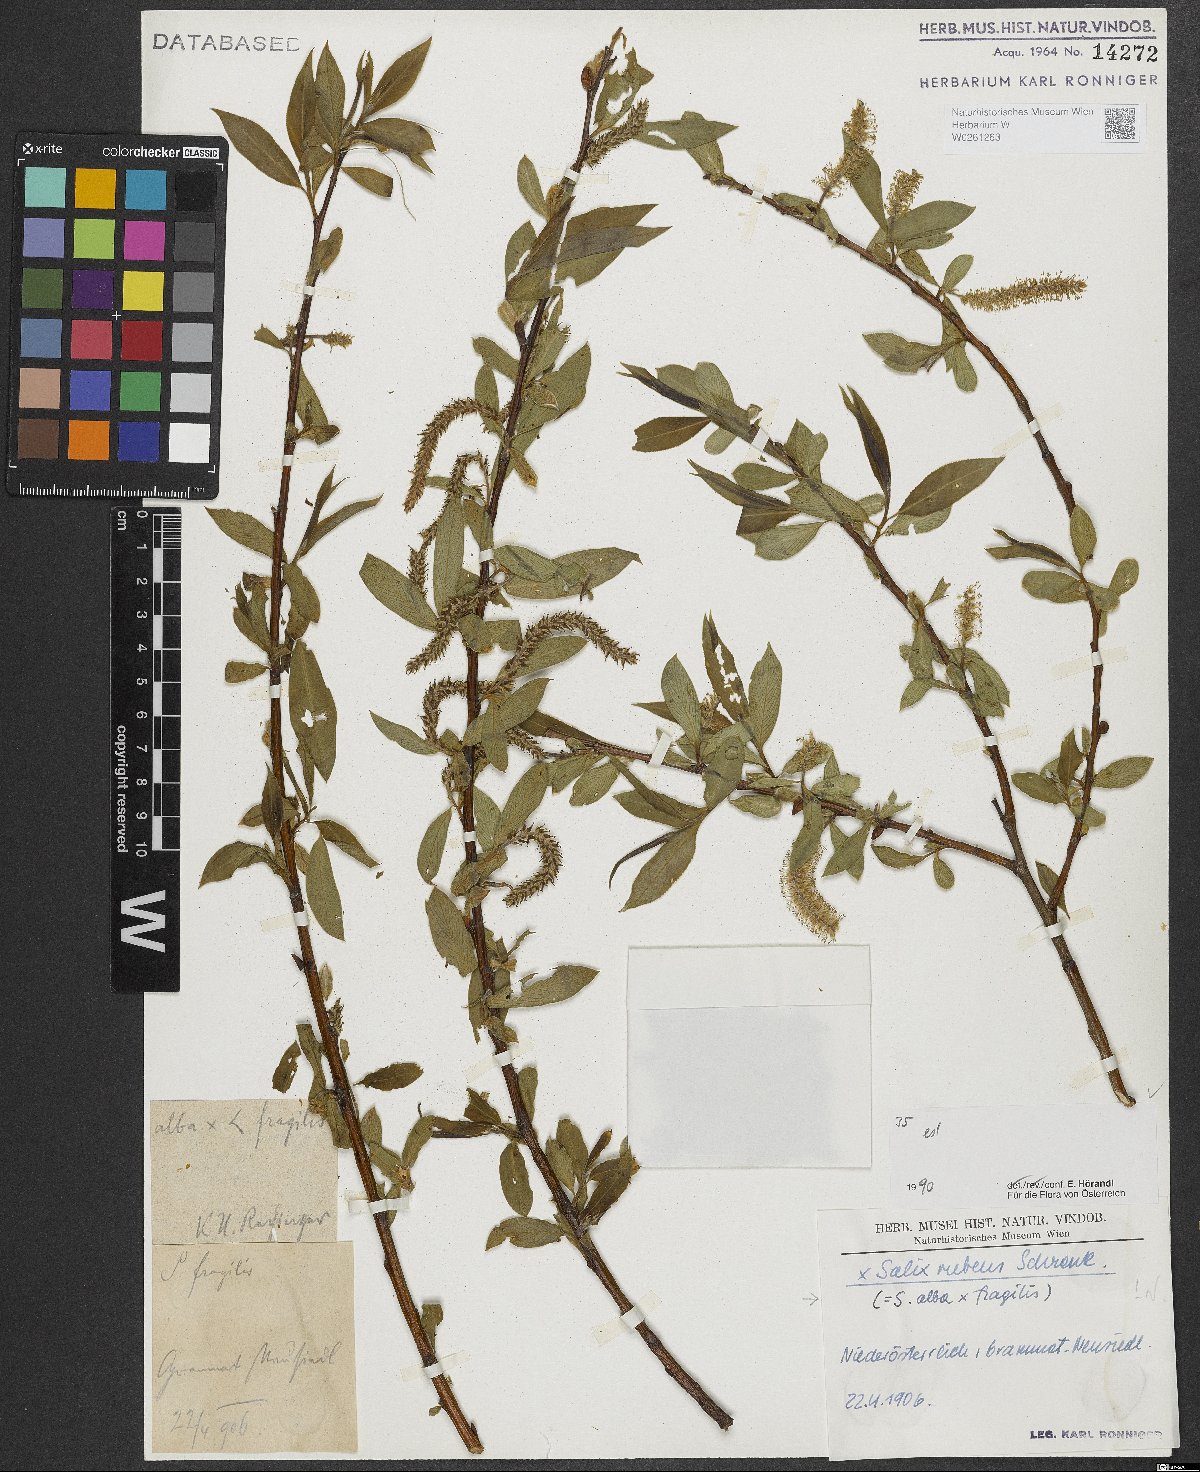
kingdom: Plantae
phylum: Tracheophyta
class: Magnoliopsida
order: Malpighiales
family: Salicaceae
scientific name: Salicaceae
